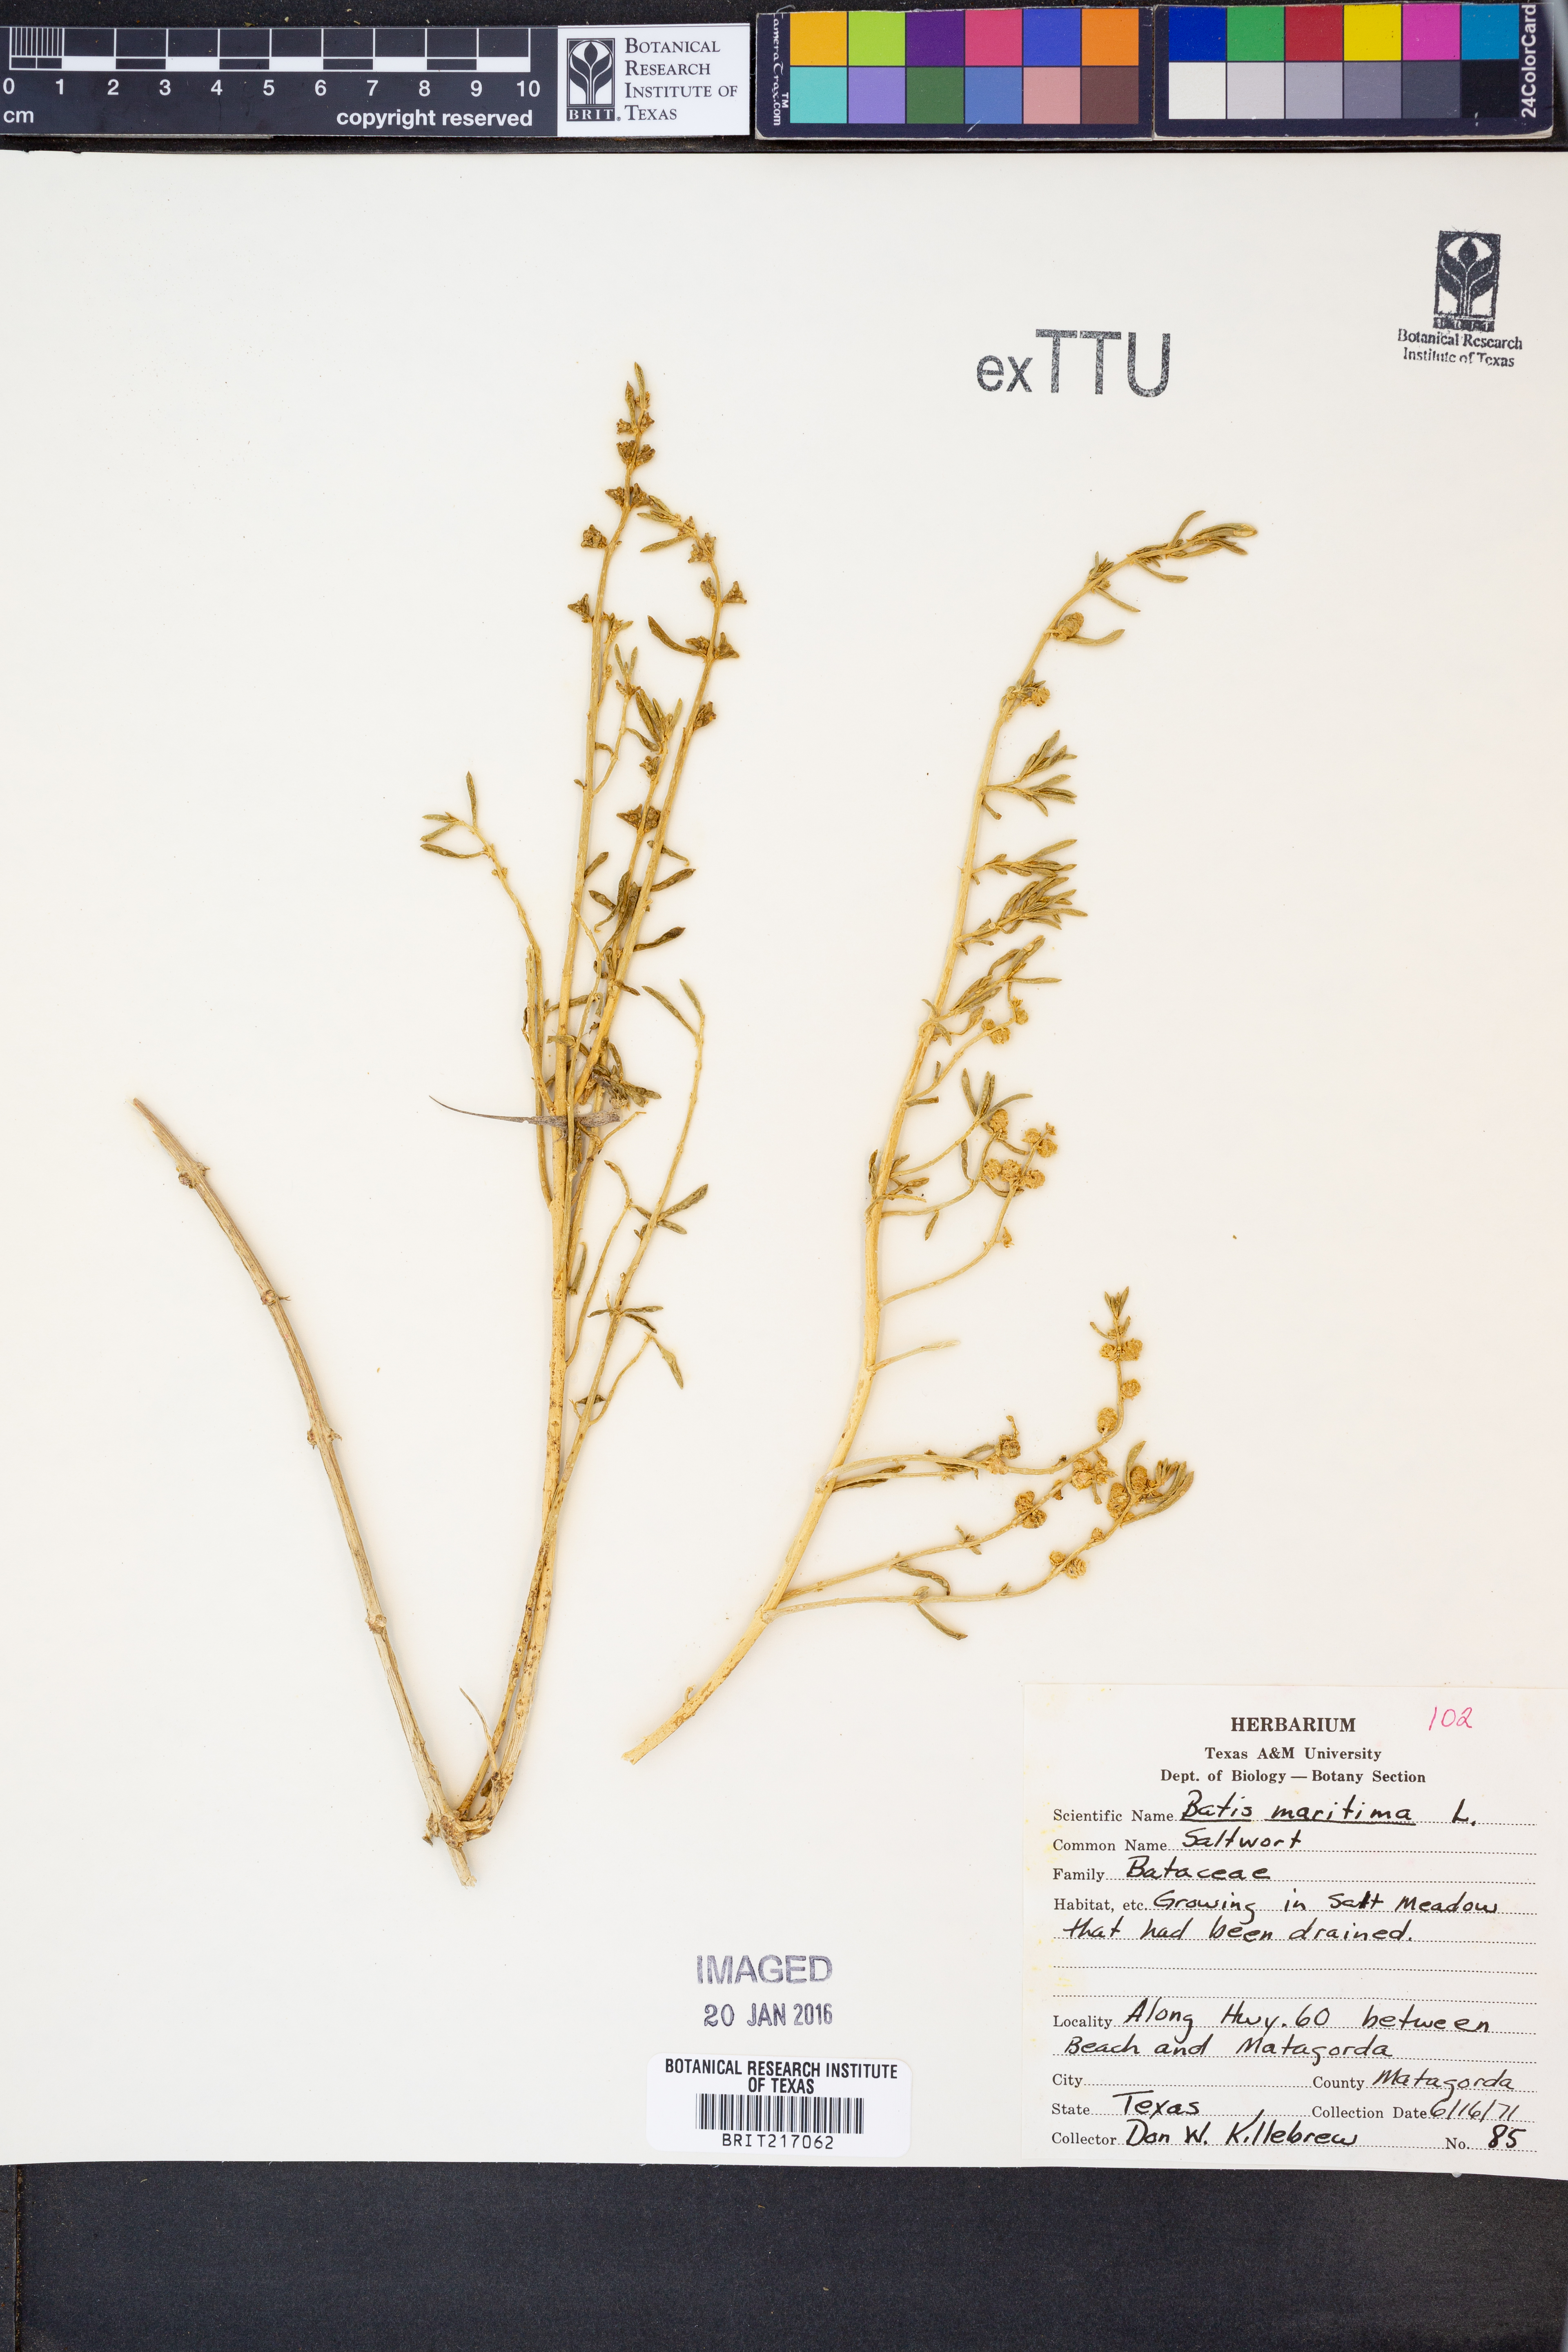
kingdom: Plantae
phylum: Tracheophyta
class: Magnoliopsida
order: Brassicales
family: Bataceae
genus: Batis
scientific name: Batis maritima
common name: Turtleweed
